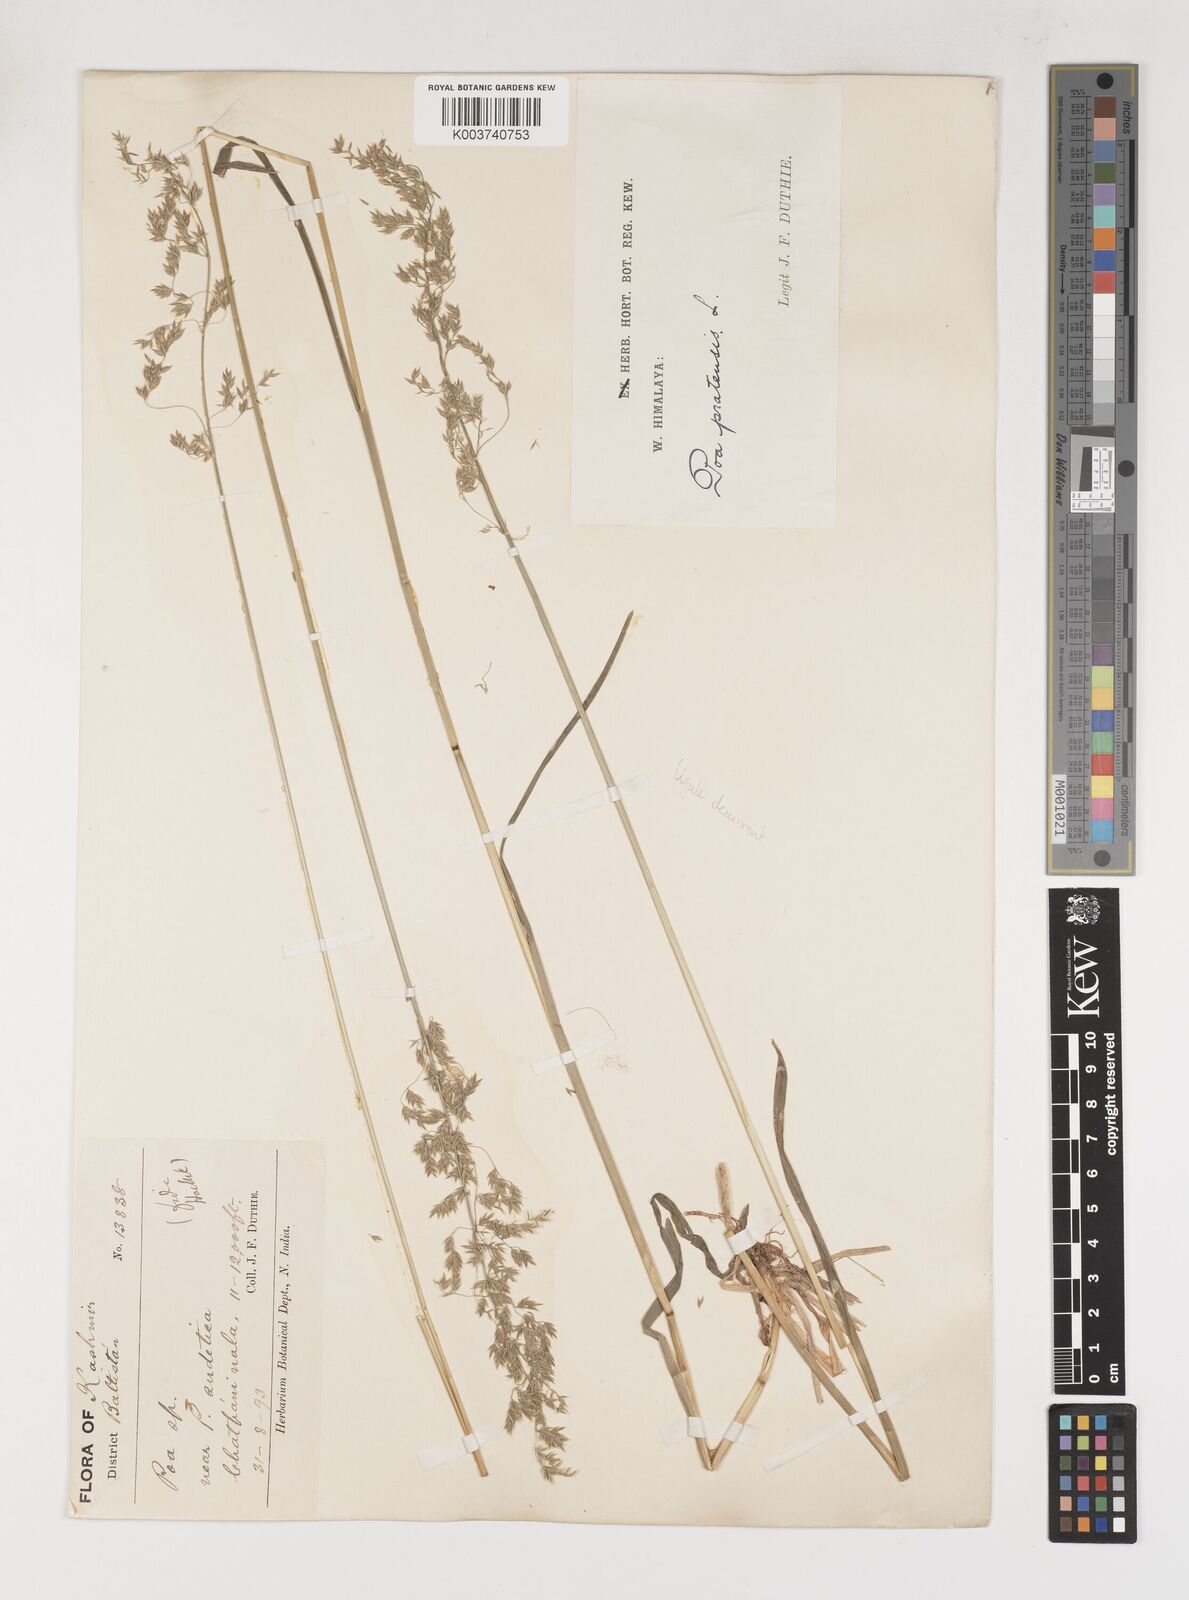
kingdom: Plantae
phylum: Tracheophyta
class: Liliopsida
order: Poales
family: Poaceae
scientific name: Poaceae
